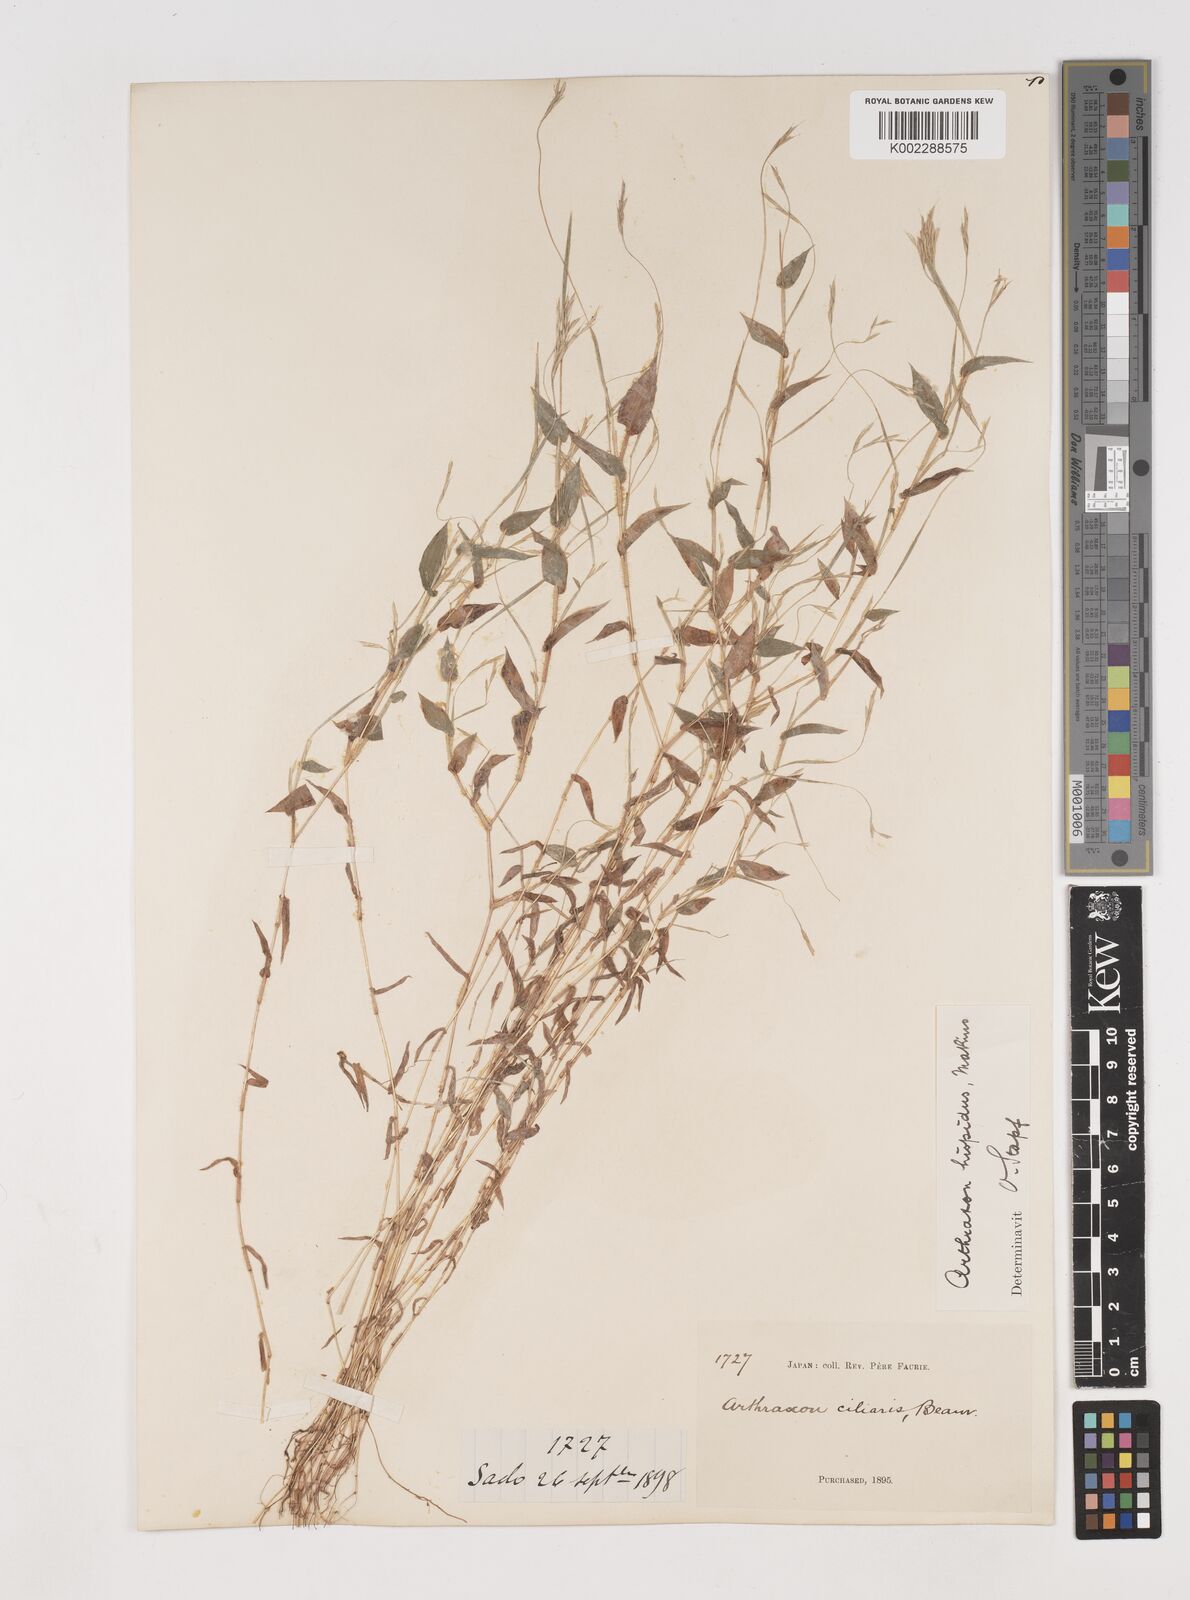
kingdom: Plantae
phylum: Tracheophyta
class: Liliopsida
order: Poales
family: Poaceae
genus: Arthraxon
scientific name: Arthraxon hispidus
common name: Small carpgrass
